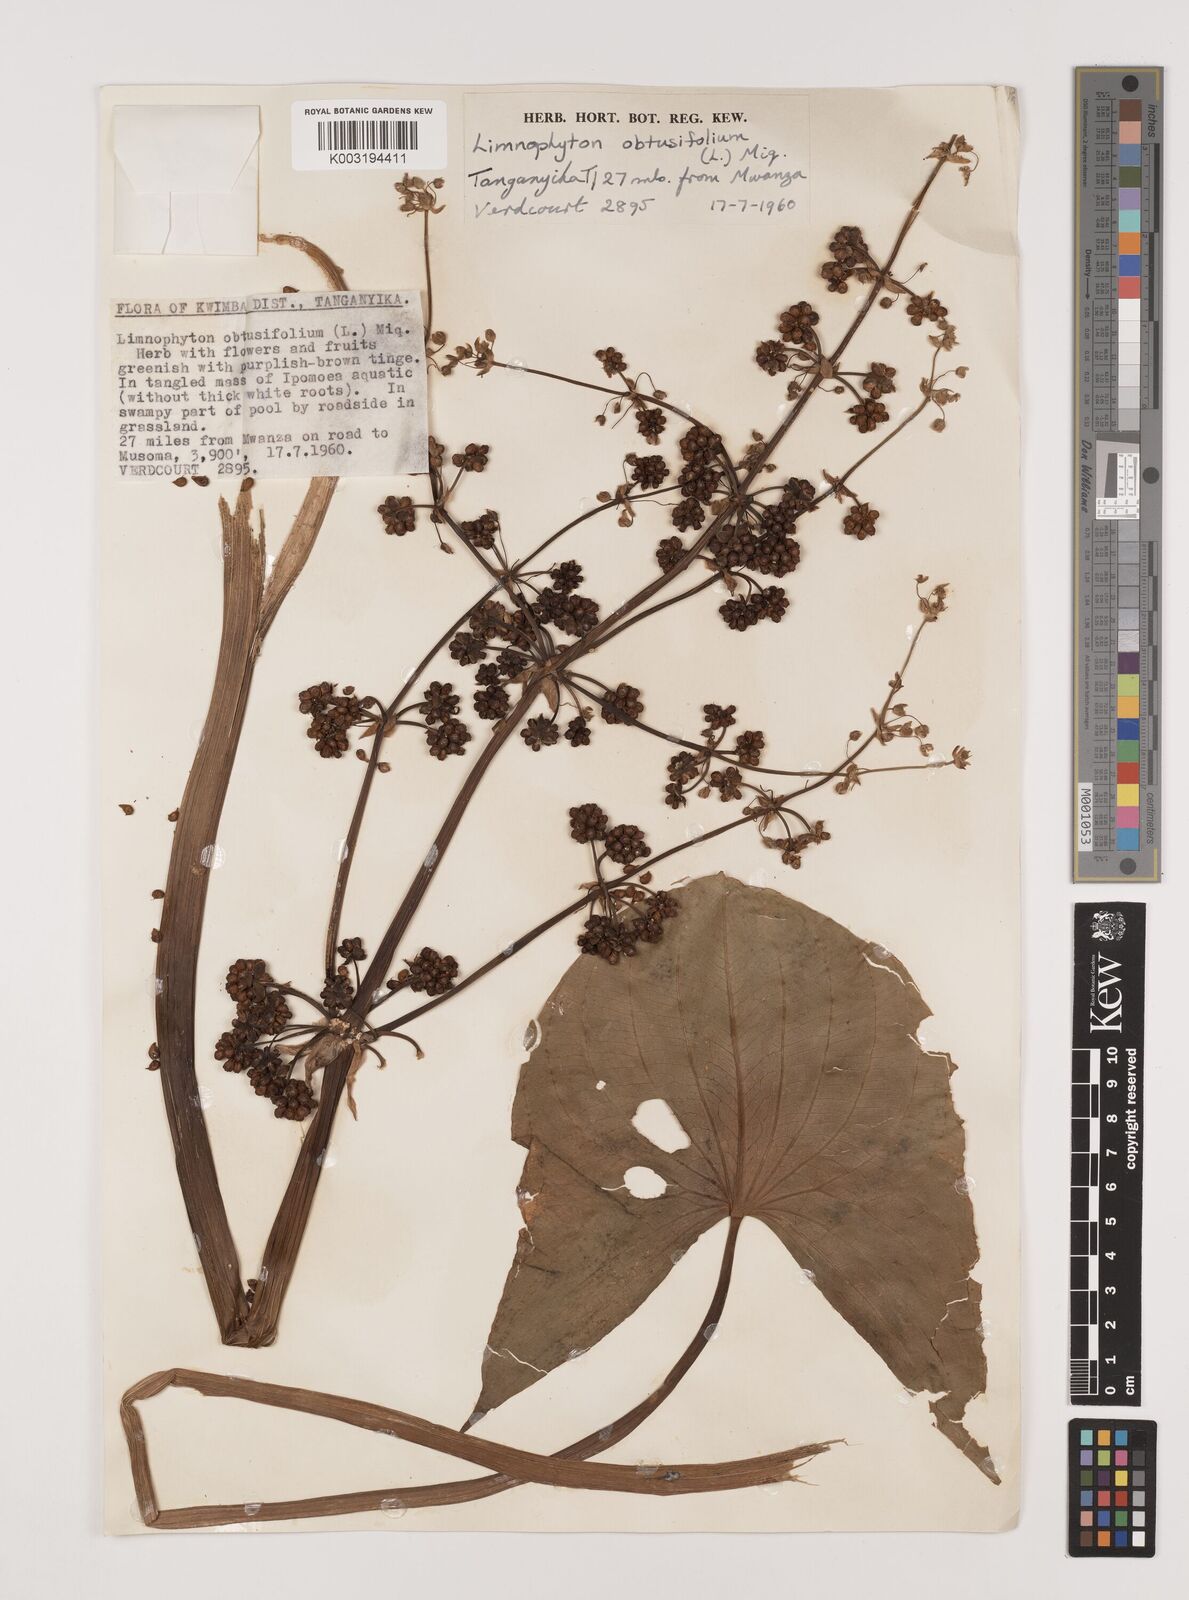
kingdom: Plantae
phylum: Tracheophyta
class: Liliopsida
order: Alismatales
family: Alismataceae
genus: Limnophyton
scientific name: Limnophyton obtusifolium
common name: Arrow head
